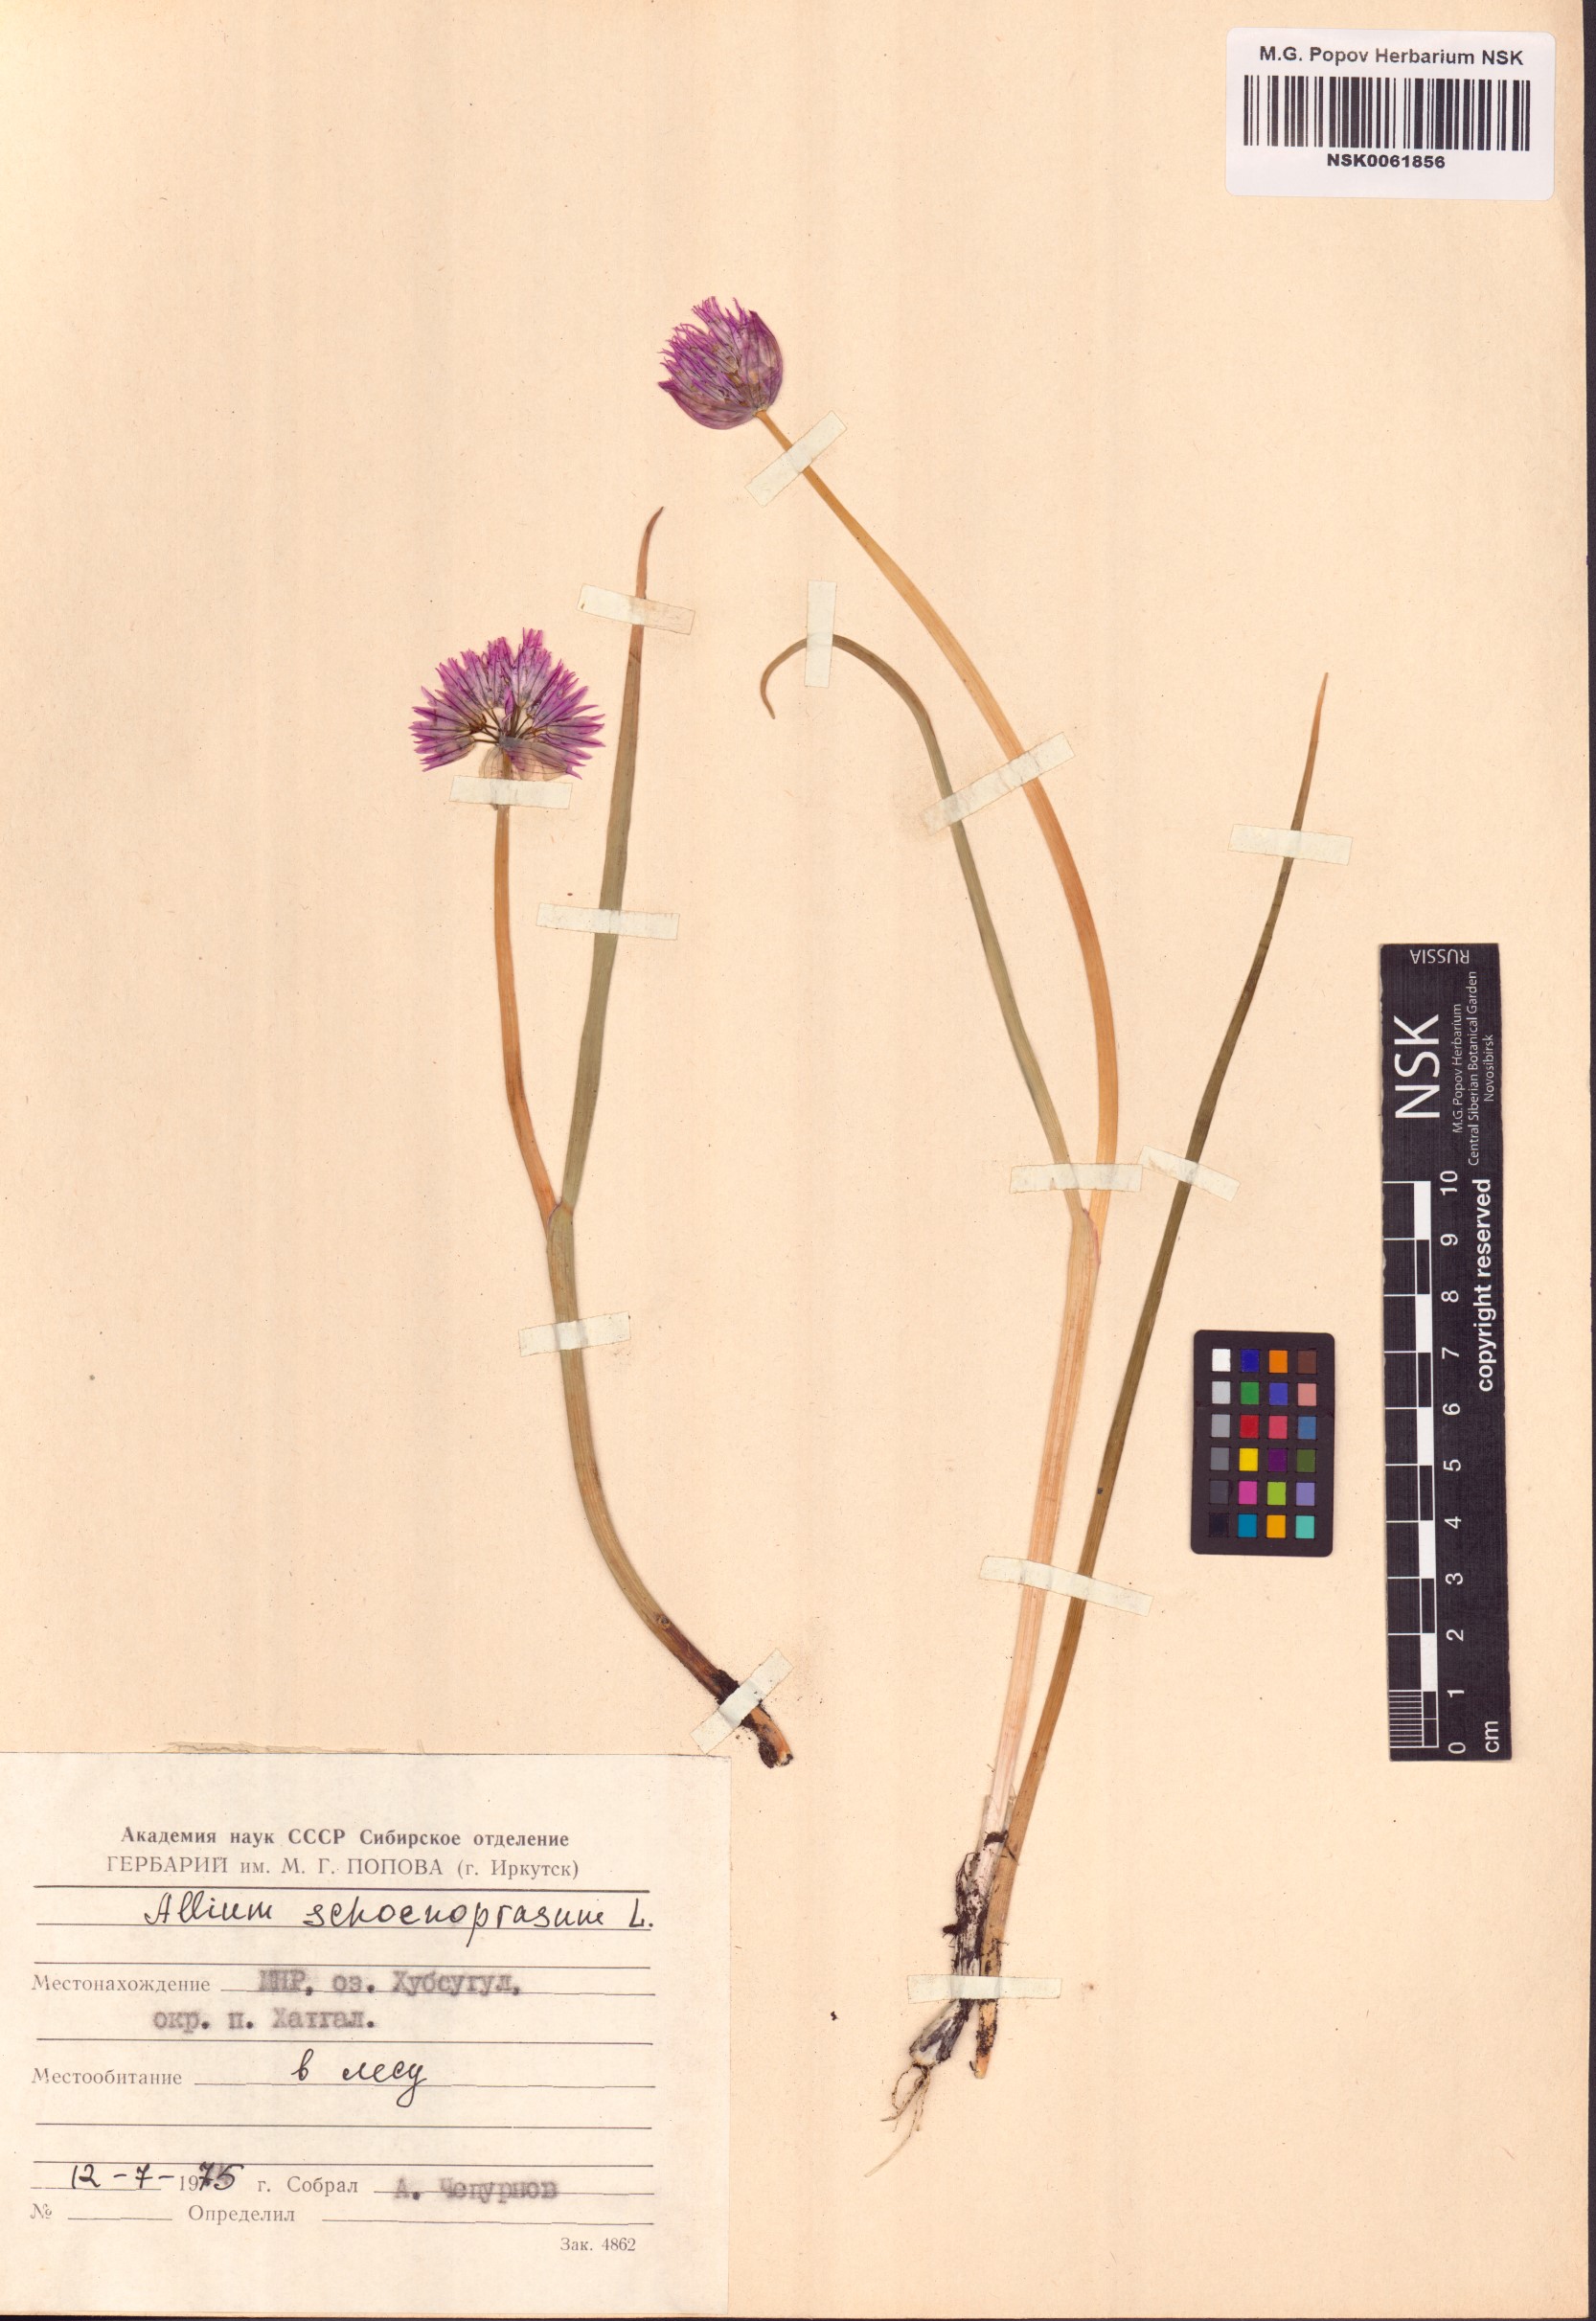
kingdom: Plantae
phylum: Tracheophyta
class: Liliopsida
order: Asparagales
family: Amaryllidaceae
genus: Allium
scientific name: Allium schoenoprasum
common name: Chives
